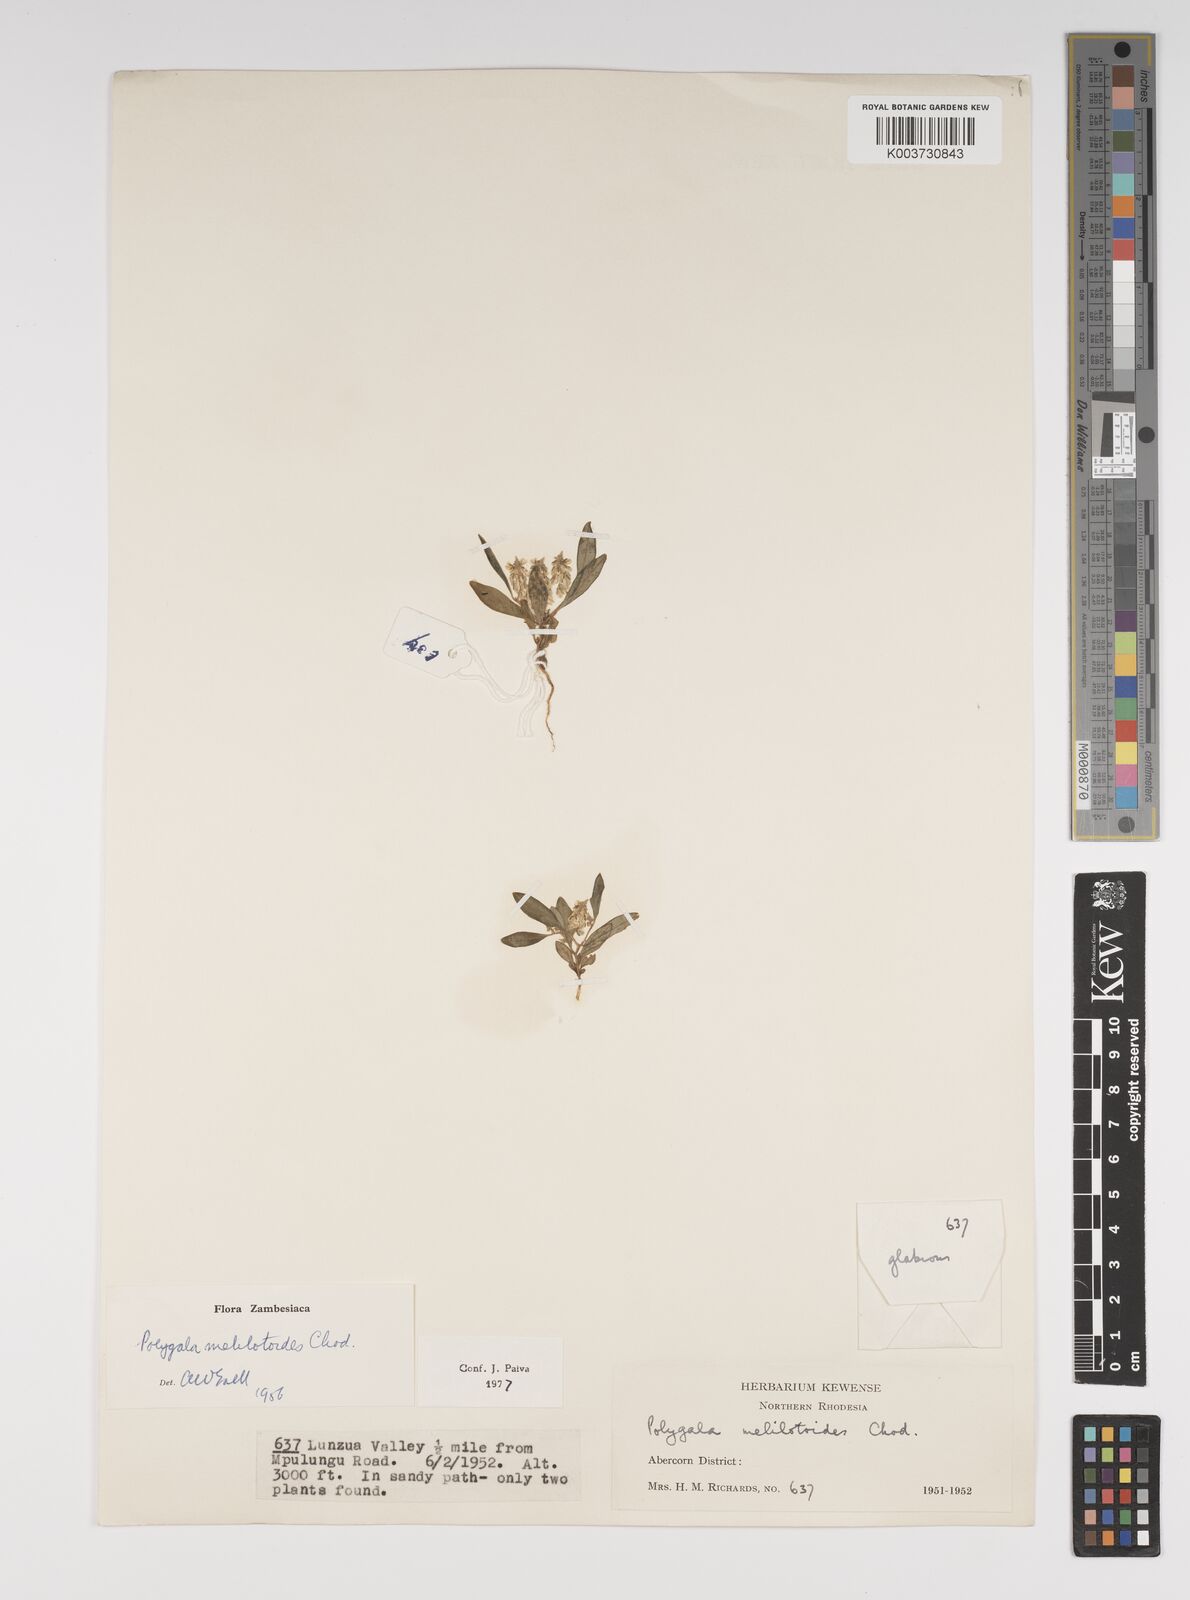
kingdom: Plantae
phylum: Tracheophyta
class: Magnoliopsida
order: Fabales
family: Polygalaceae
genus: Polygala
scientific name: Polygala melilotoides
